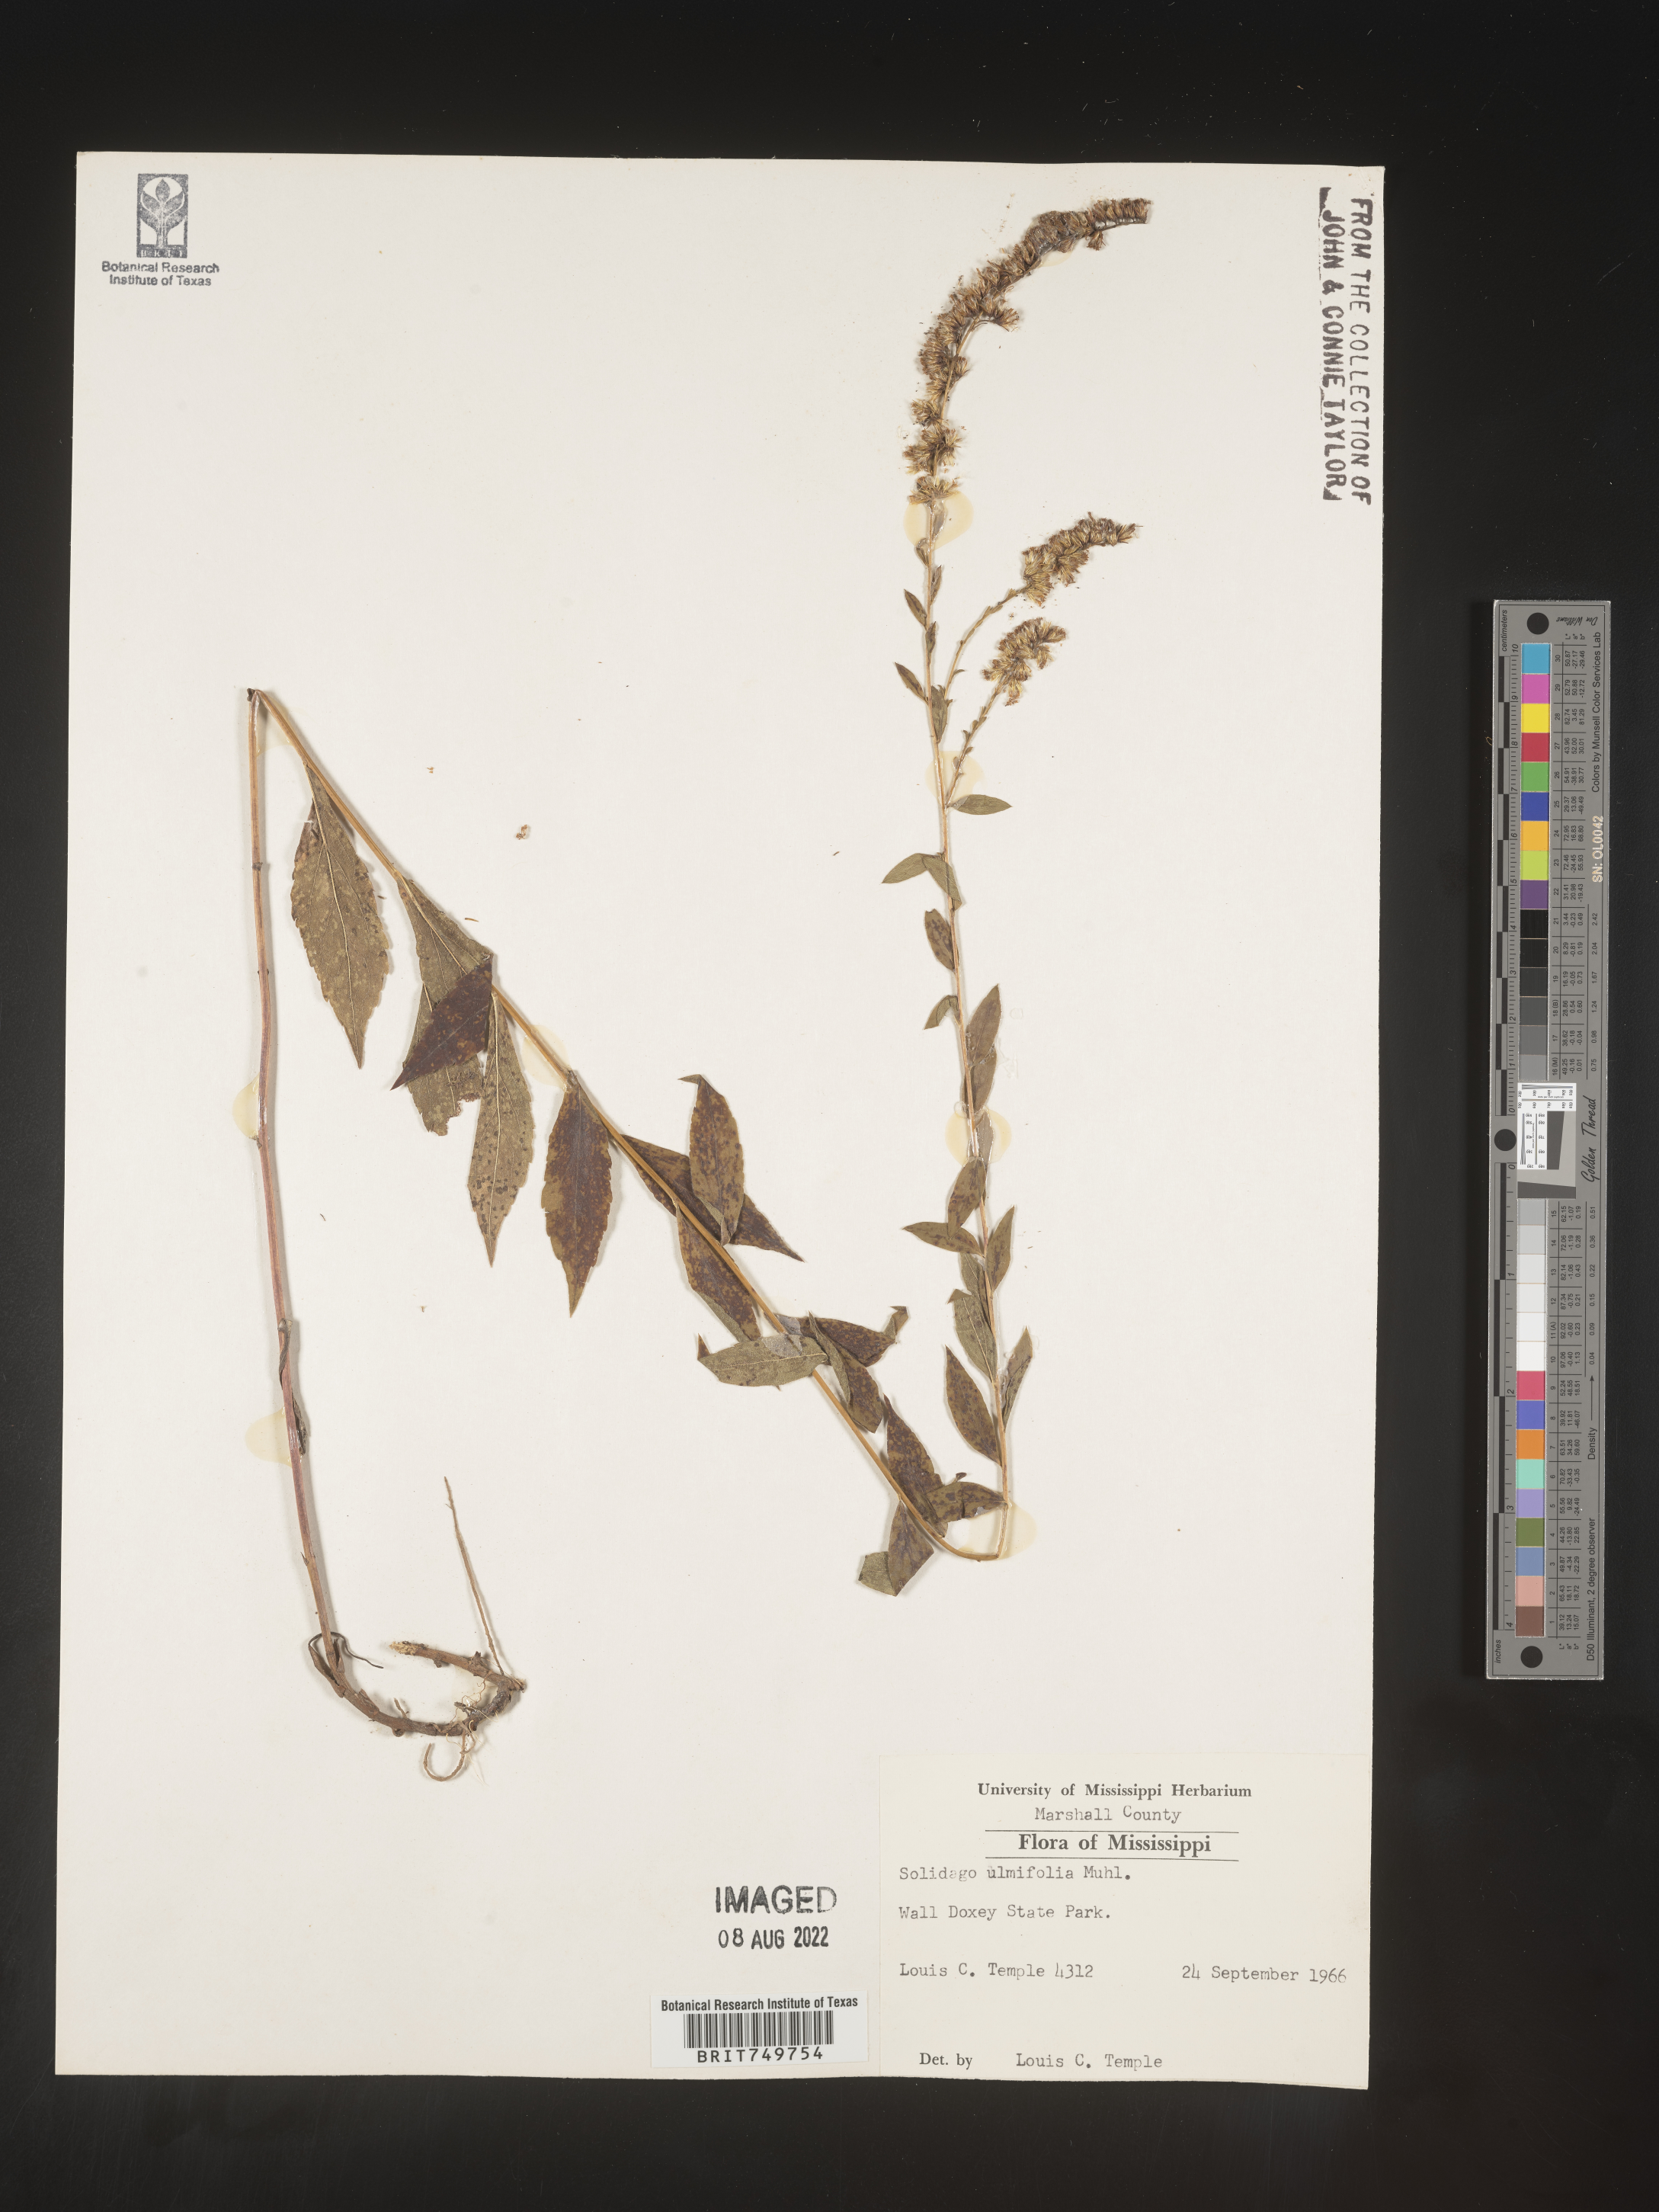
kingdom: Plantae
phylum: Tracheophyta
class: Magnoliopsida
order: Asterales
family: Asteraceae
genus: Solidago
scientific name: Solidago ulmifolia
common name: Elm-leaf goldenrod
